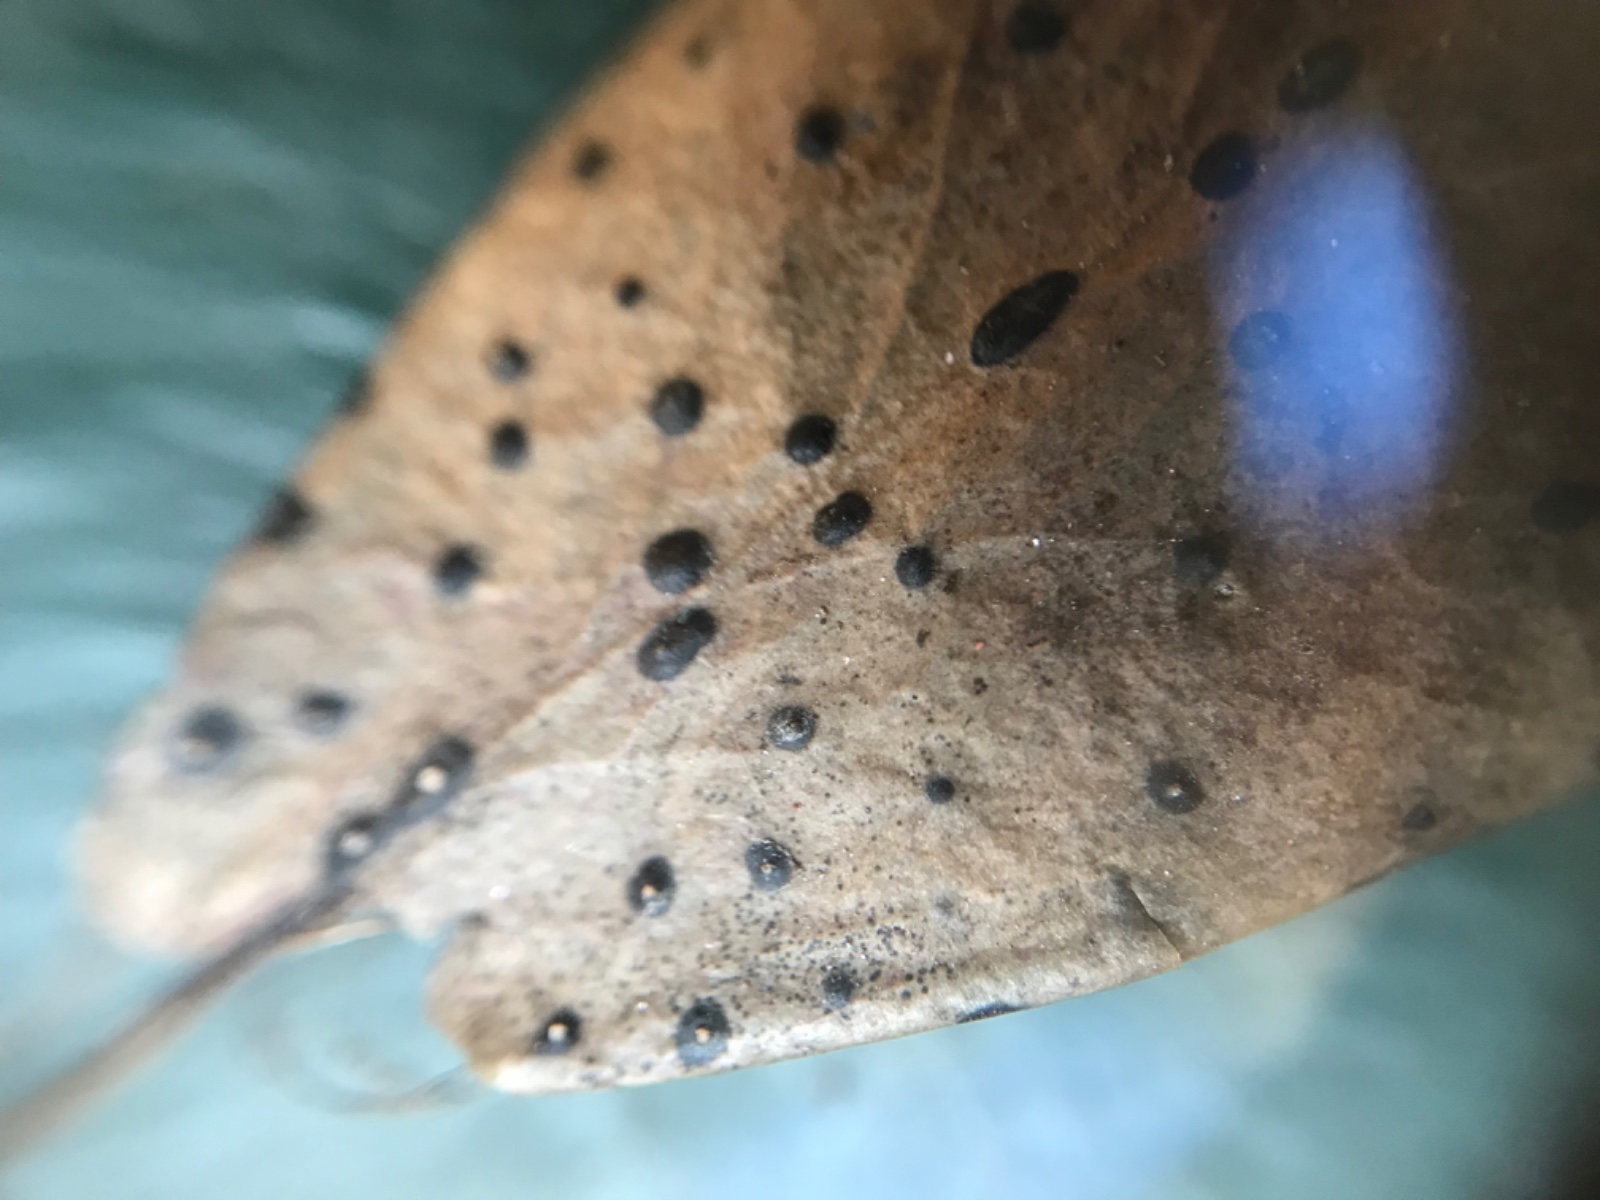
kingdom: Fungi
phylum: Ascomycota
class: Leotiomycetes
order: Phacidiales
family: Phacidiaceae
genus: Phacidium
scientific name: Phacidium lauri
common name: kristtorn-tandskive
